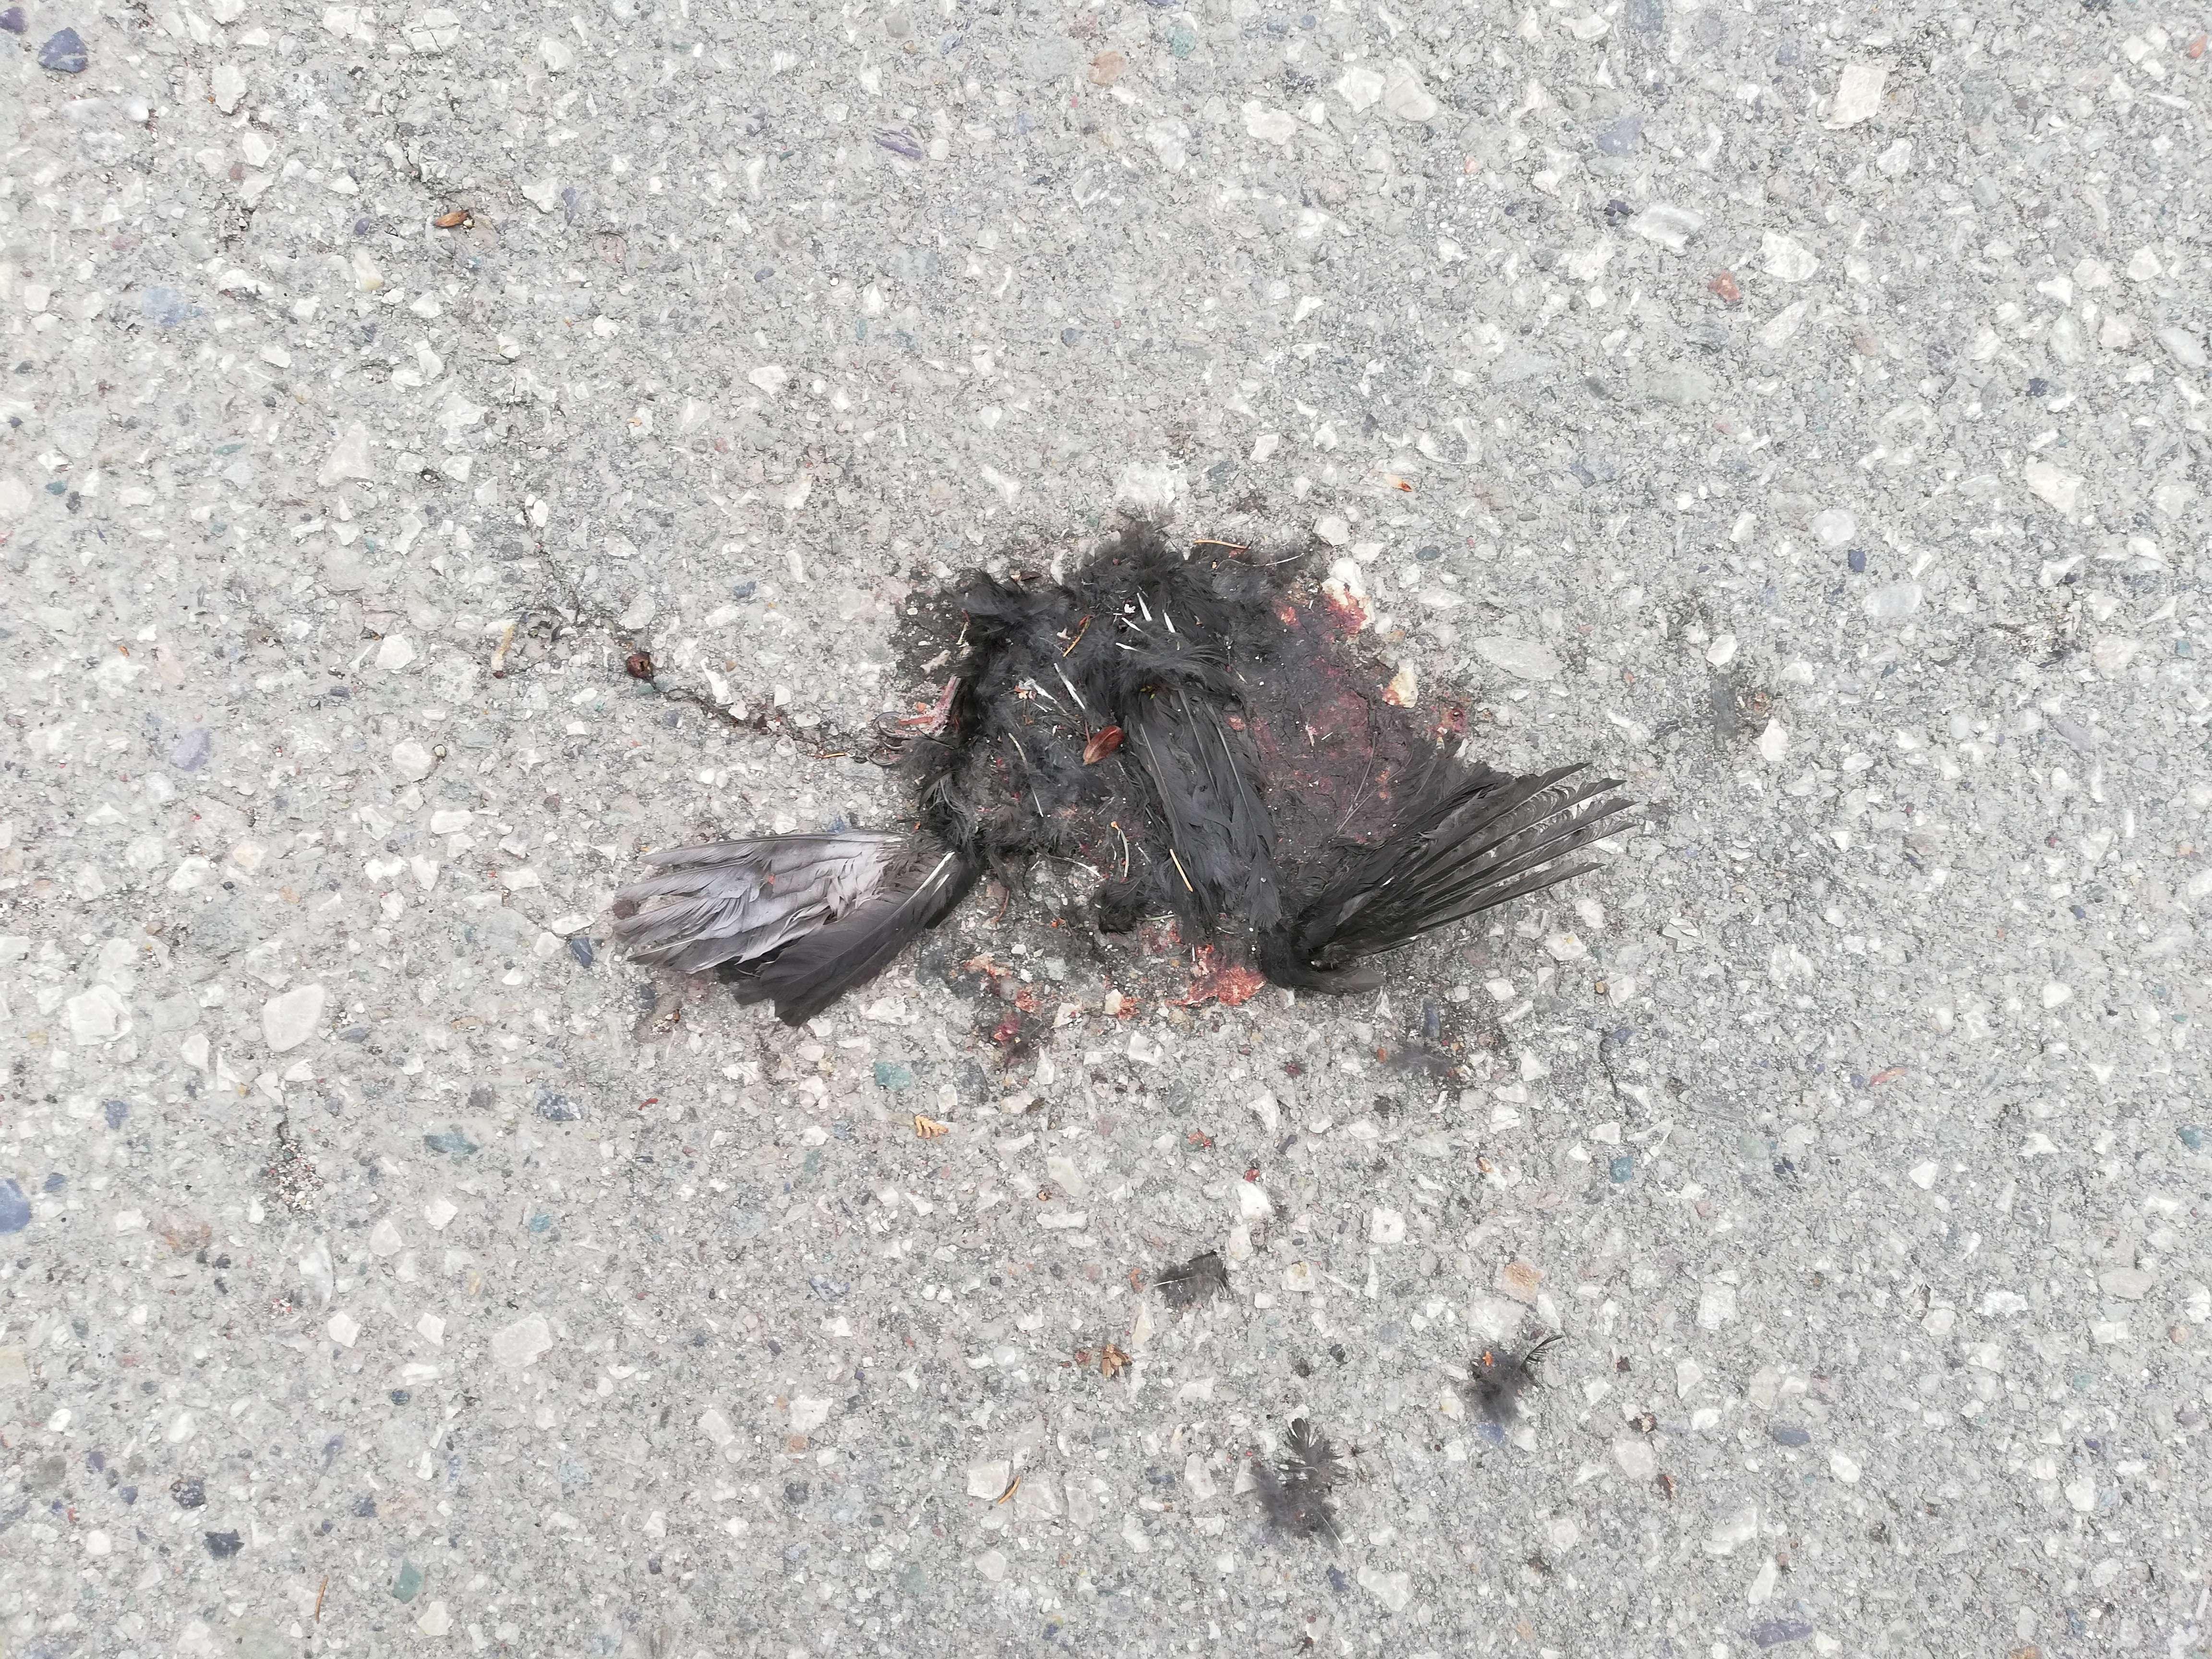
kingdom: Animalia
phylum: Chordata
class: Aves
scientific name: Aves
